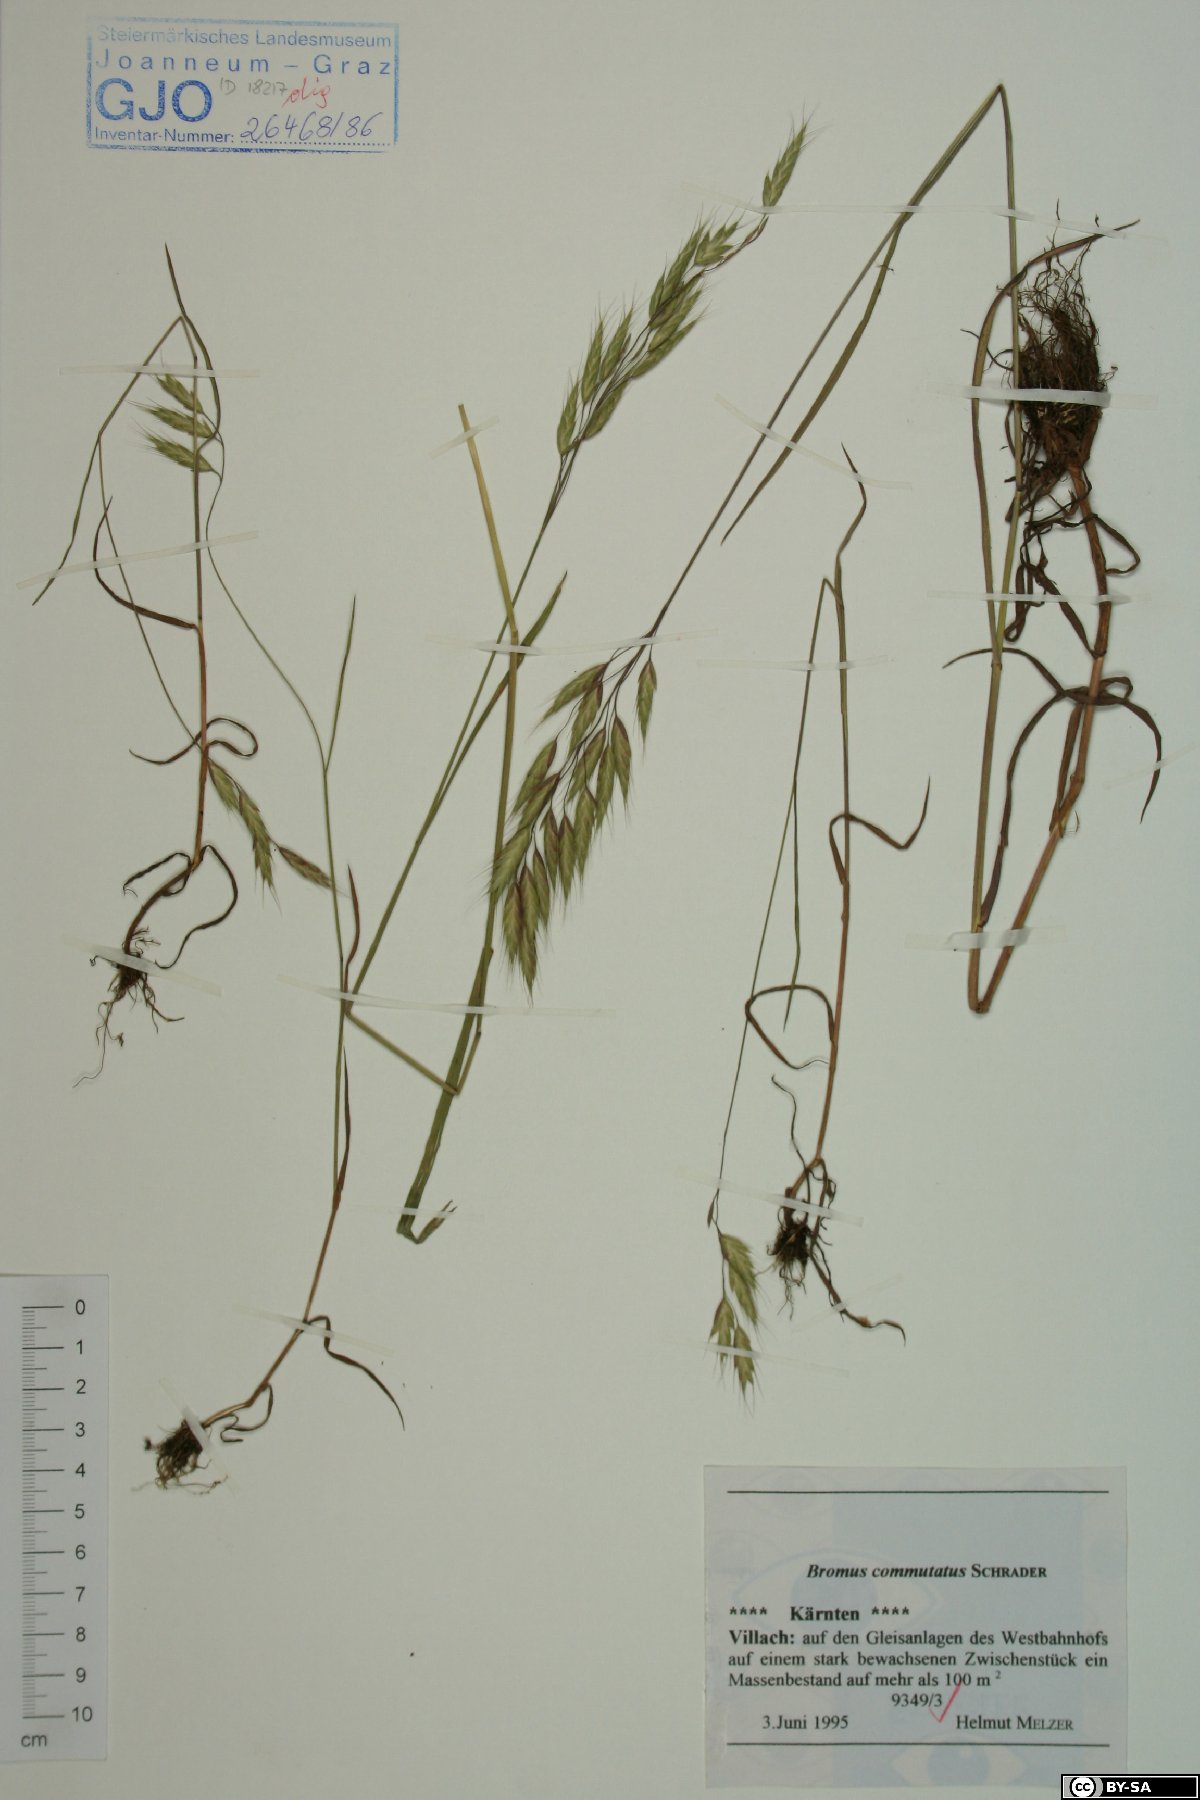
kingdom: Plantae
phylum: Tracheophyta
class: Liliopsida
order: Poales
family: Poaceae
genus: Bromus
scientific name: Bromus commutatus
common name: Meadow brome
